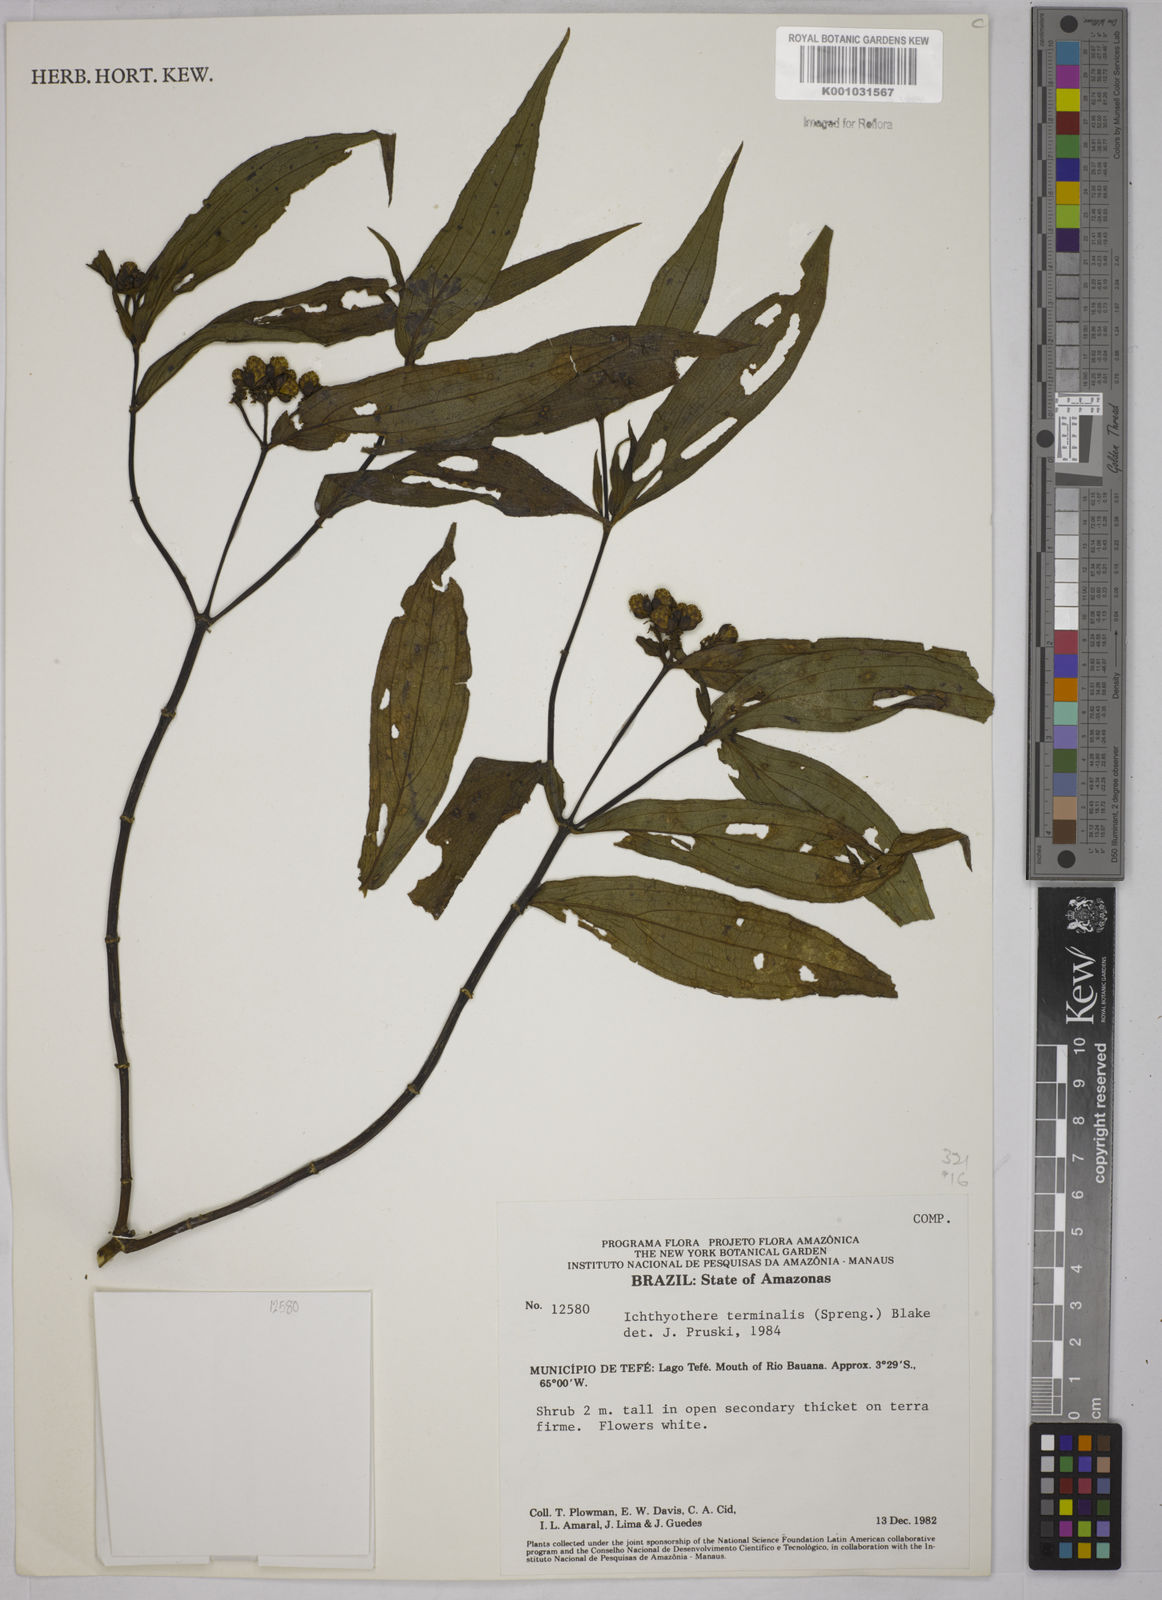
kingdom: Plantae
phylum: Tracheophyta
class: Magnoliopsida
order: Asterales
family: Asteraceae
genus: Ichthyothere
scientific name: Ichthyothere cunabi
